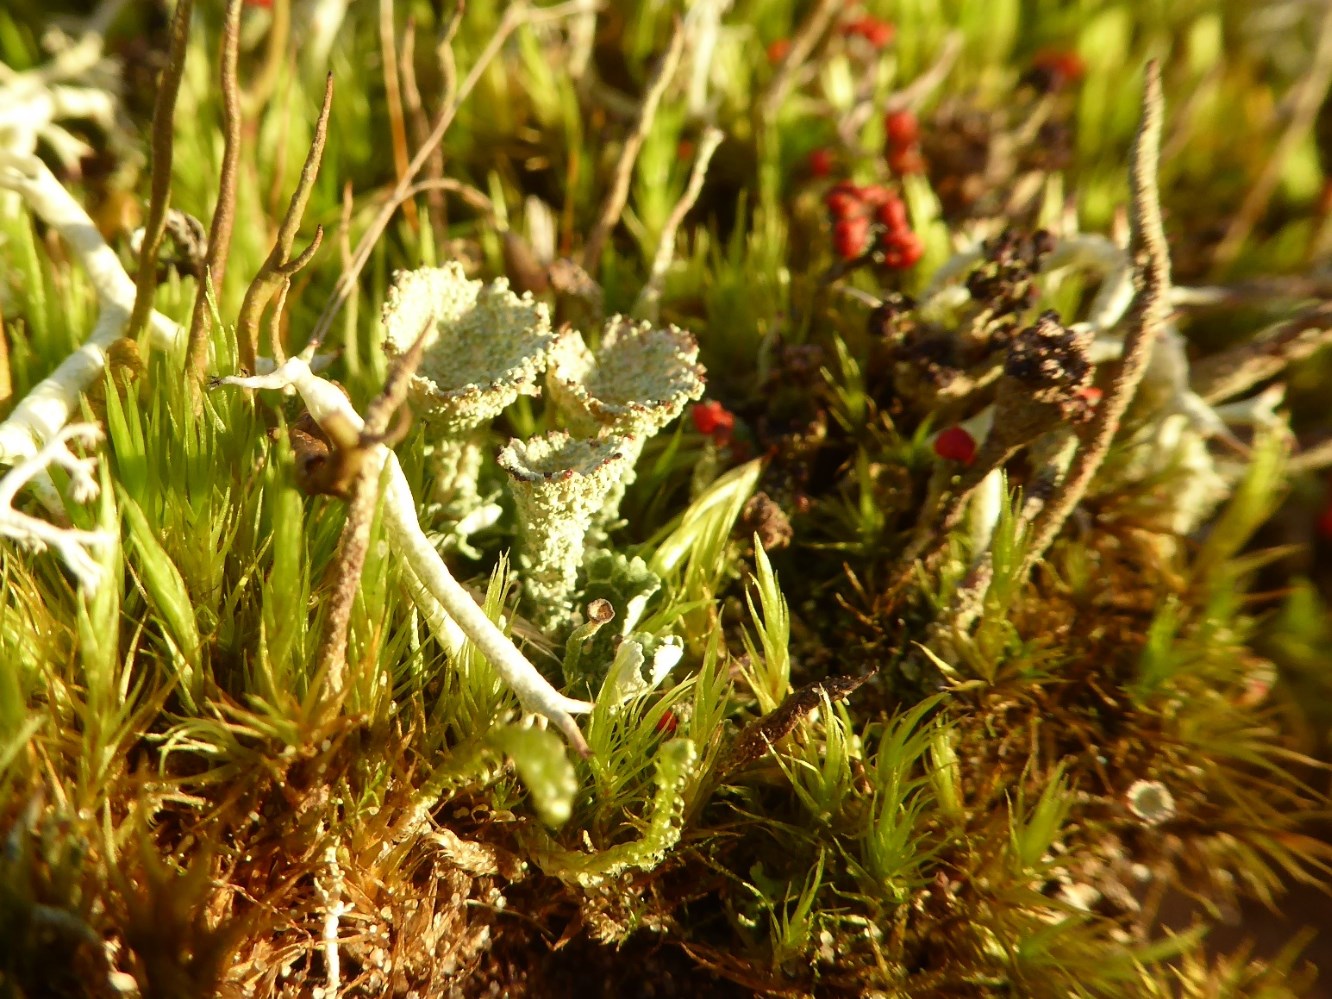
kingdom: Fungi
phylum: Ascomycota
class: Lecanoromycetes
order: Lecanorales
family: Cladoniaceae
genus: Cladonia
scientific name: Cladonia diversa
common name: rød bægerlav
